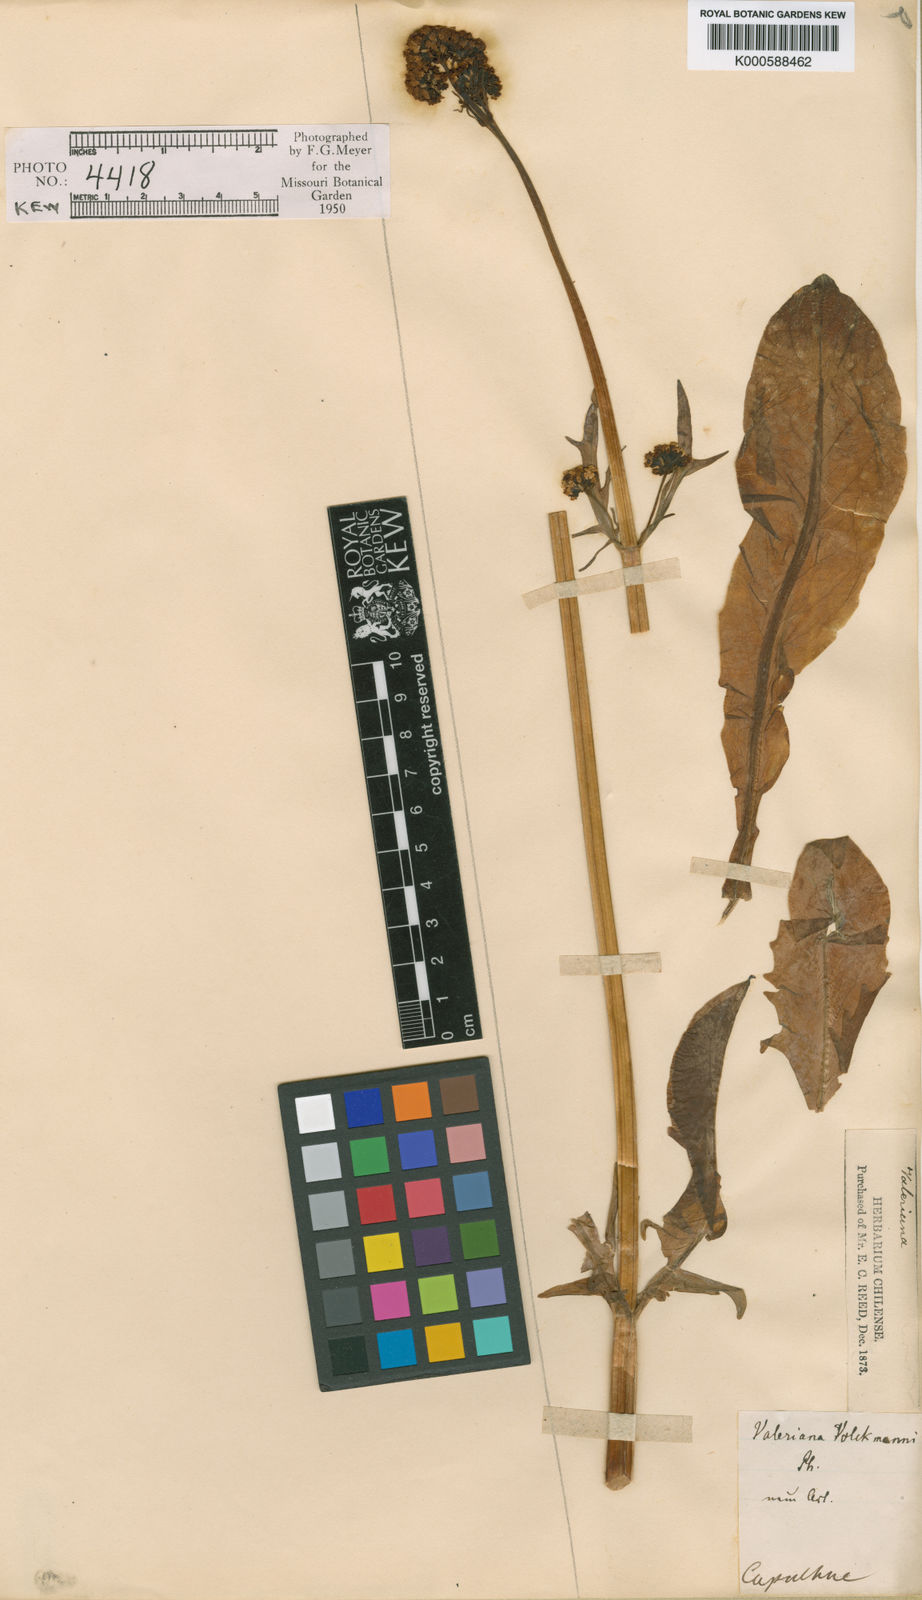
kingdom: Plantae
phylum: Tracheophyta
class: Magnoliopsida
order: Dipsacales
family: Caprifoliaceae
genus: Valeriana
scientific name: Valeriana
